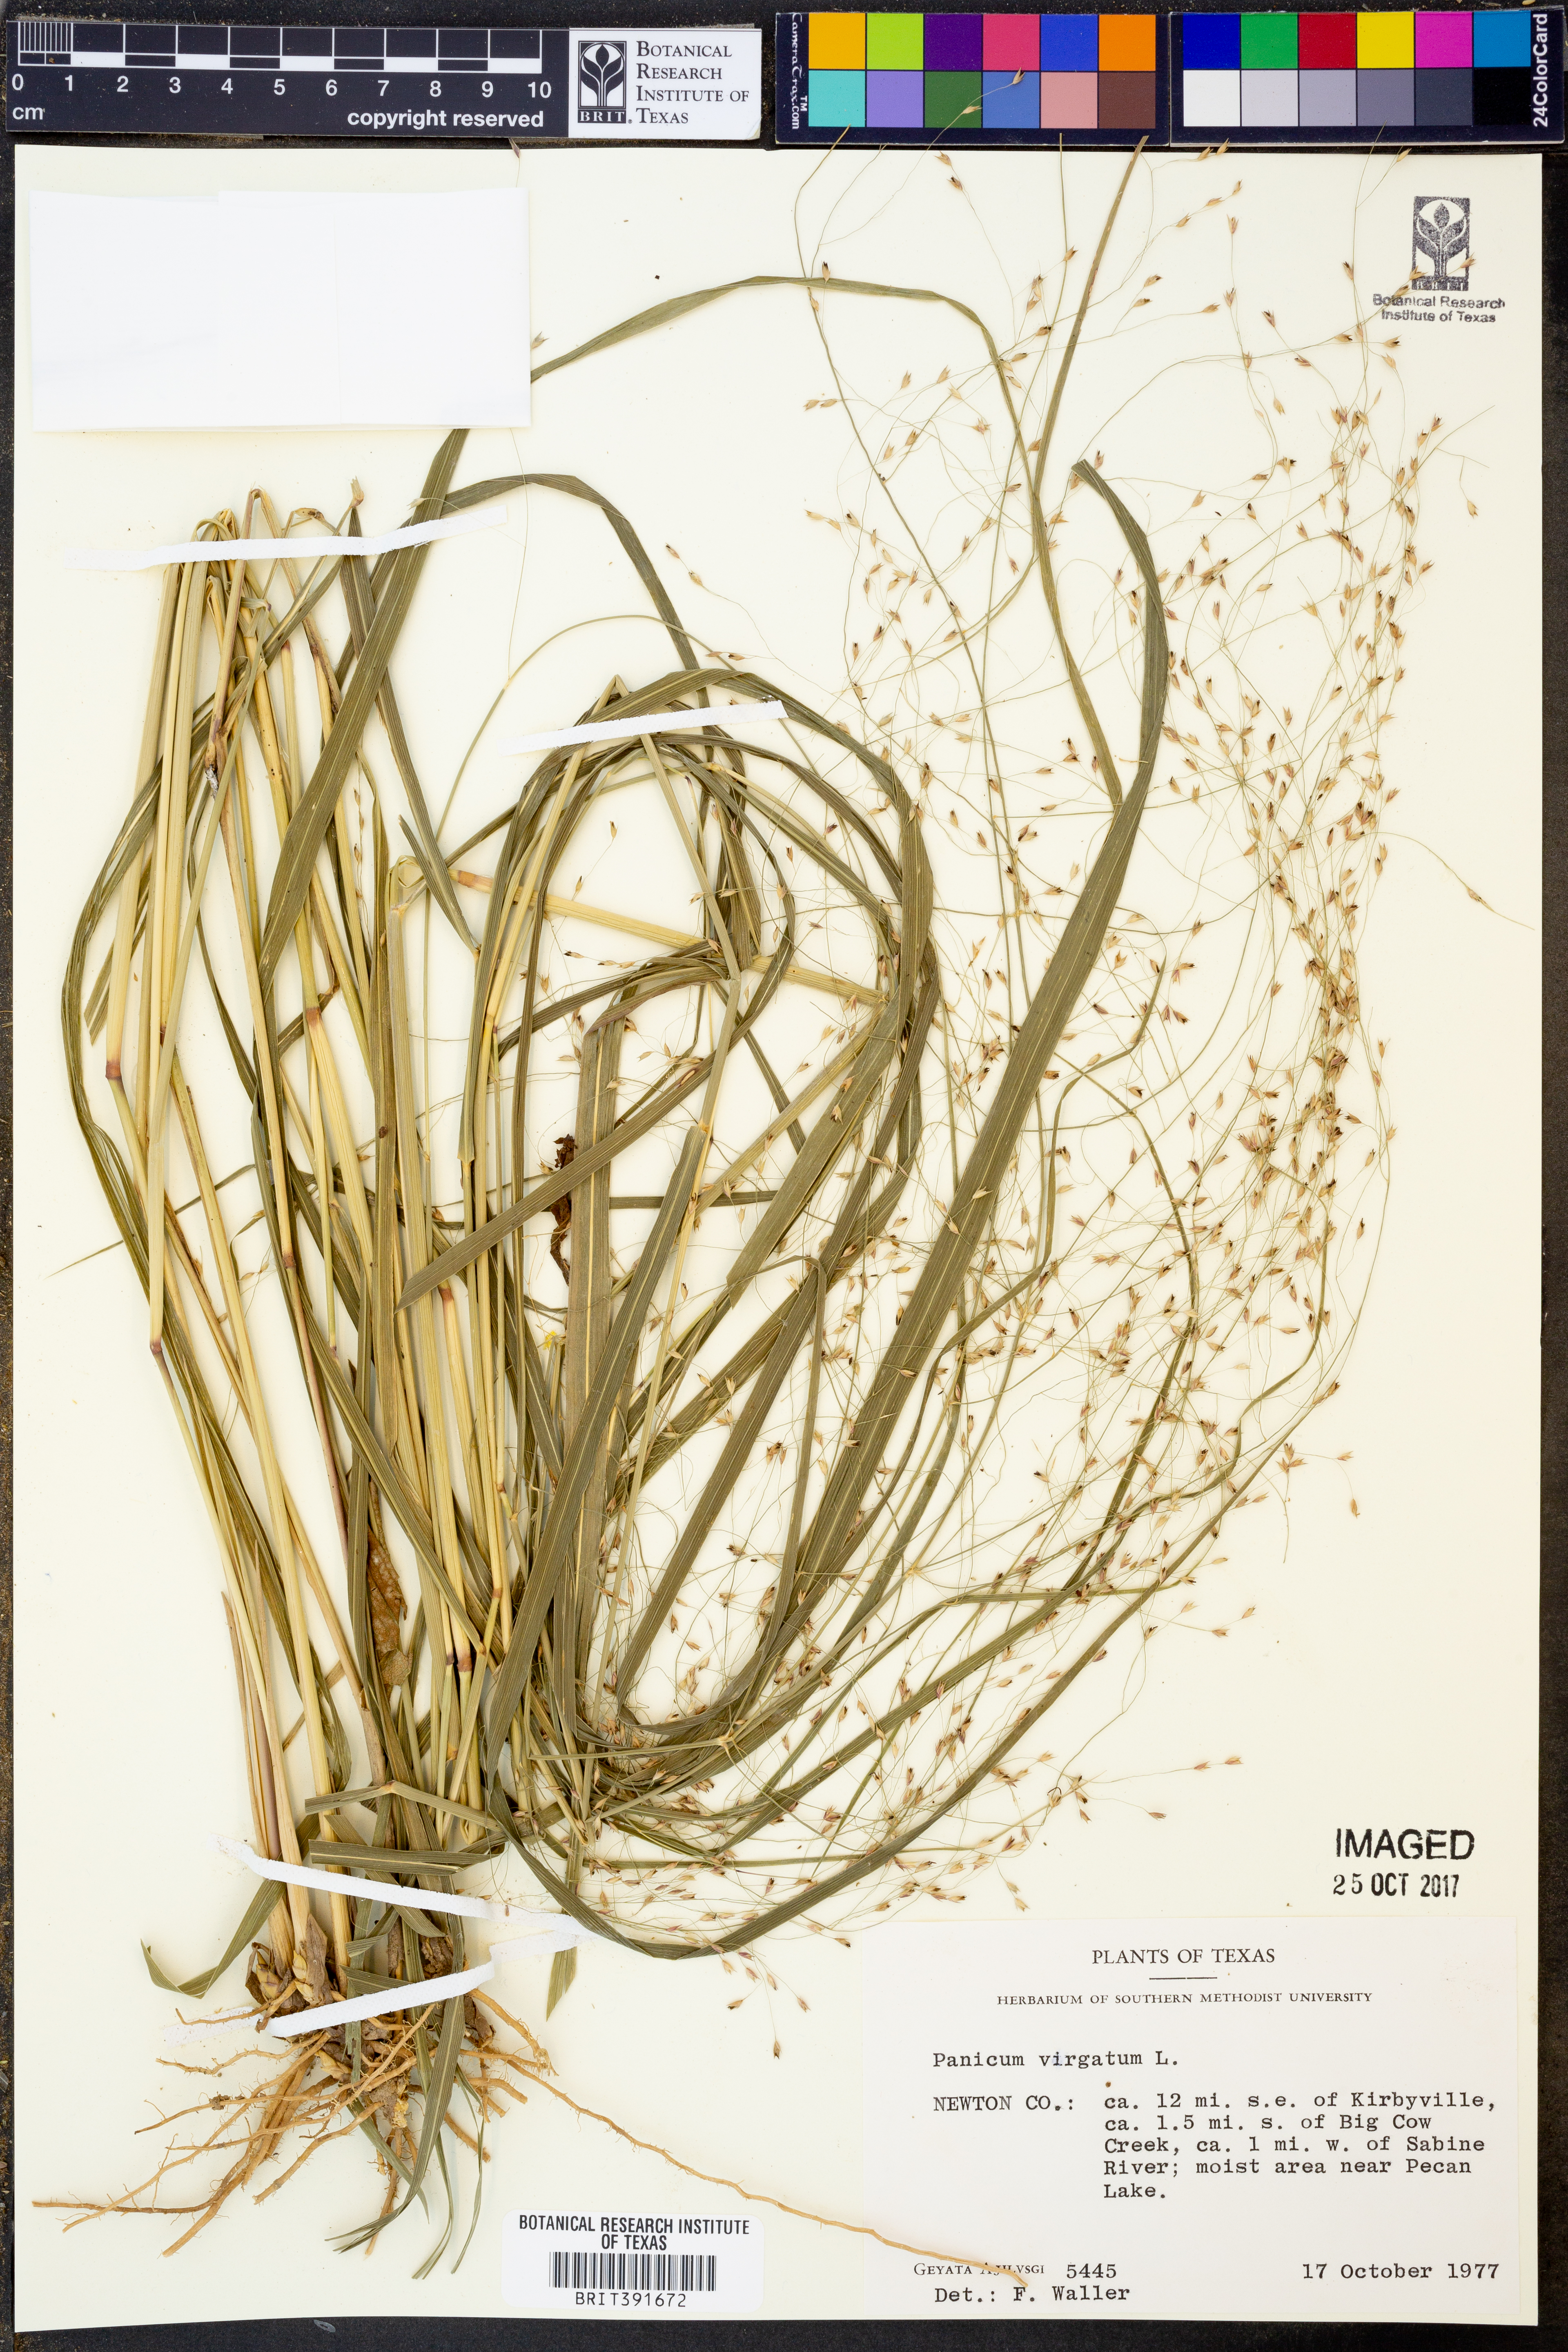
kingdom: Plantae
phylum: Tracheophyta
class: Liliopsida
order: Poales
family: Poaceae
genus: Panicum
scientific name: Panicum virgatum
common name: Switchgrass
